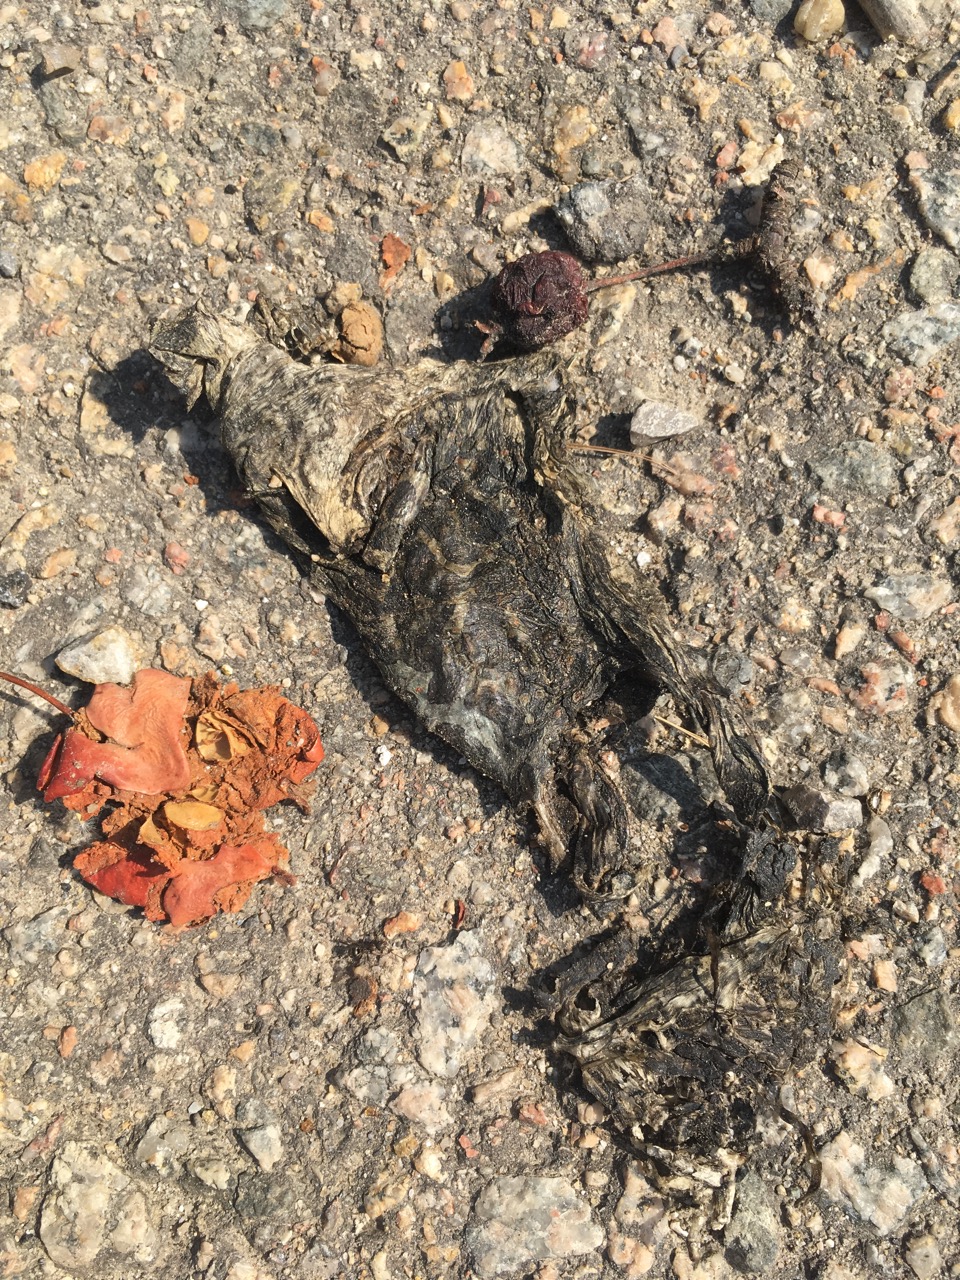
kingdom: Animalia
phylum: Chordata
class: Amphibia
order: Anura
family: Bufonidae
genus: Bufotes
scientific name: Bufotes viridis
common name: European green toad
